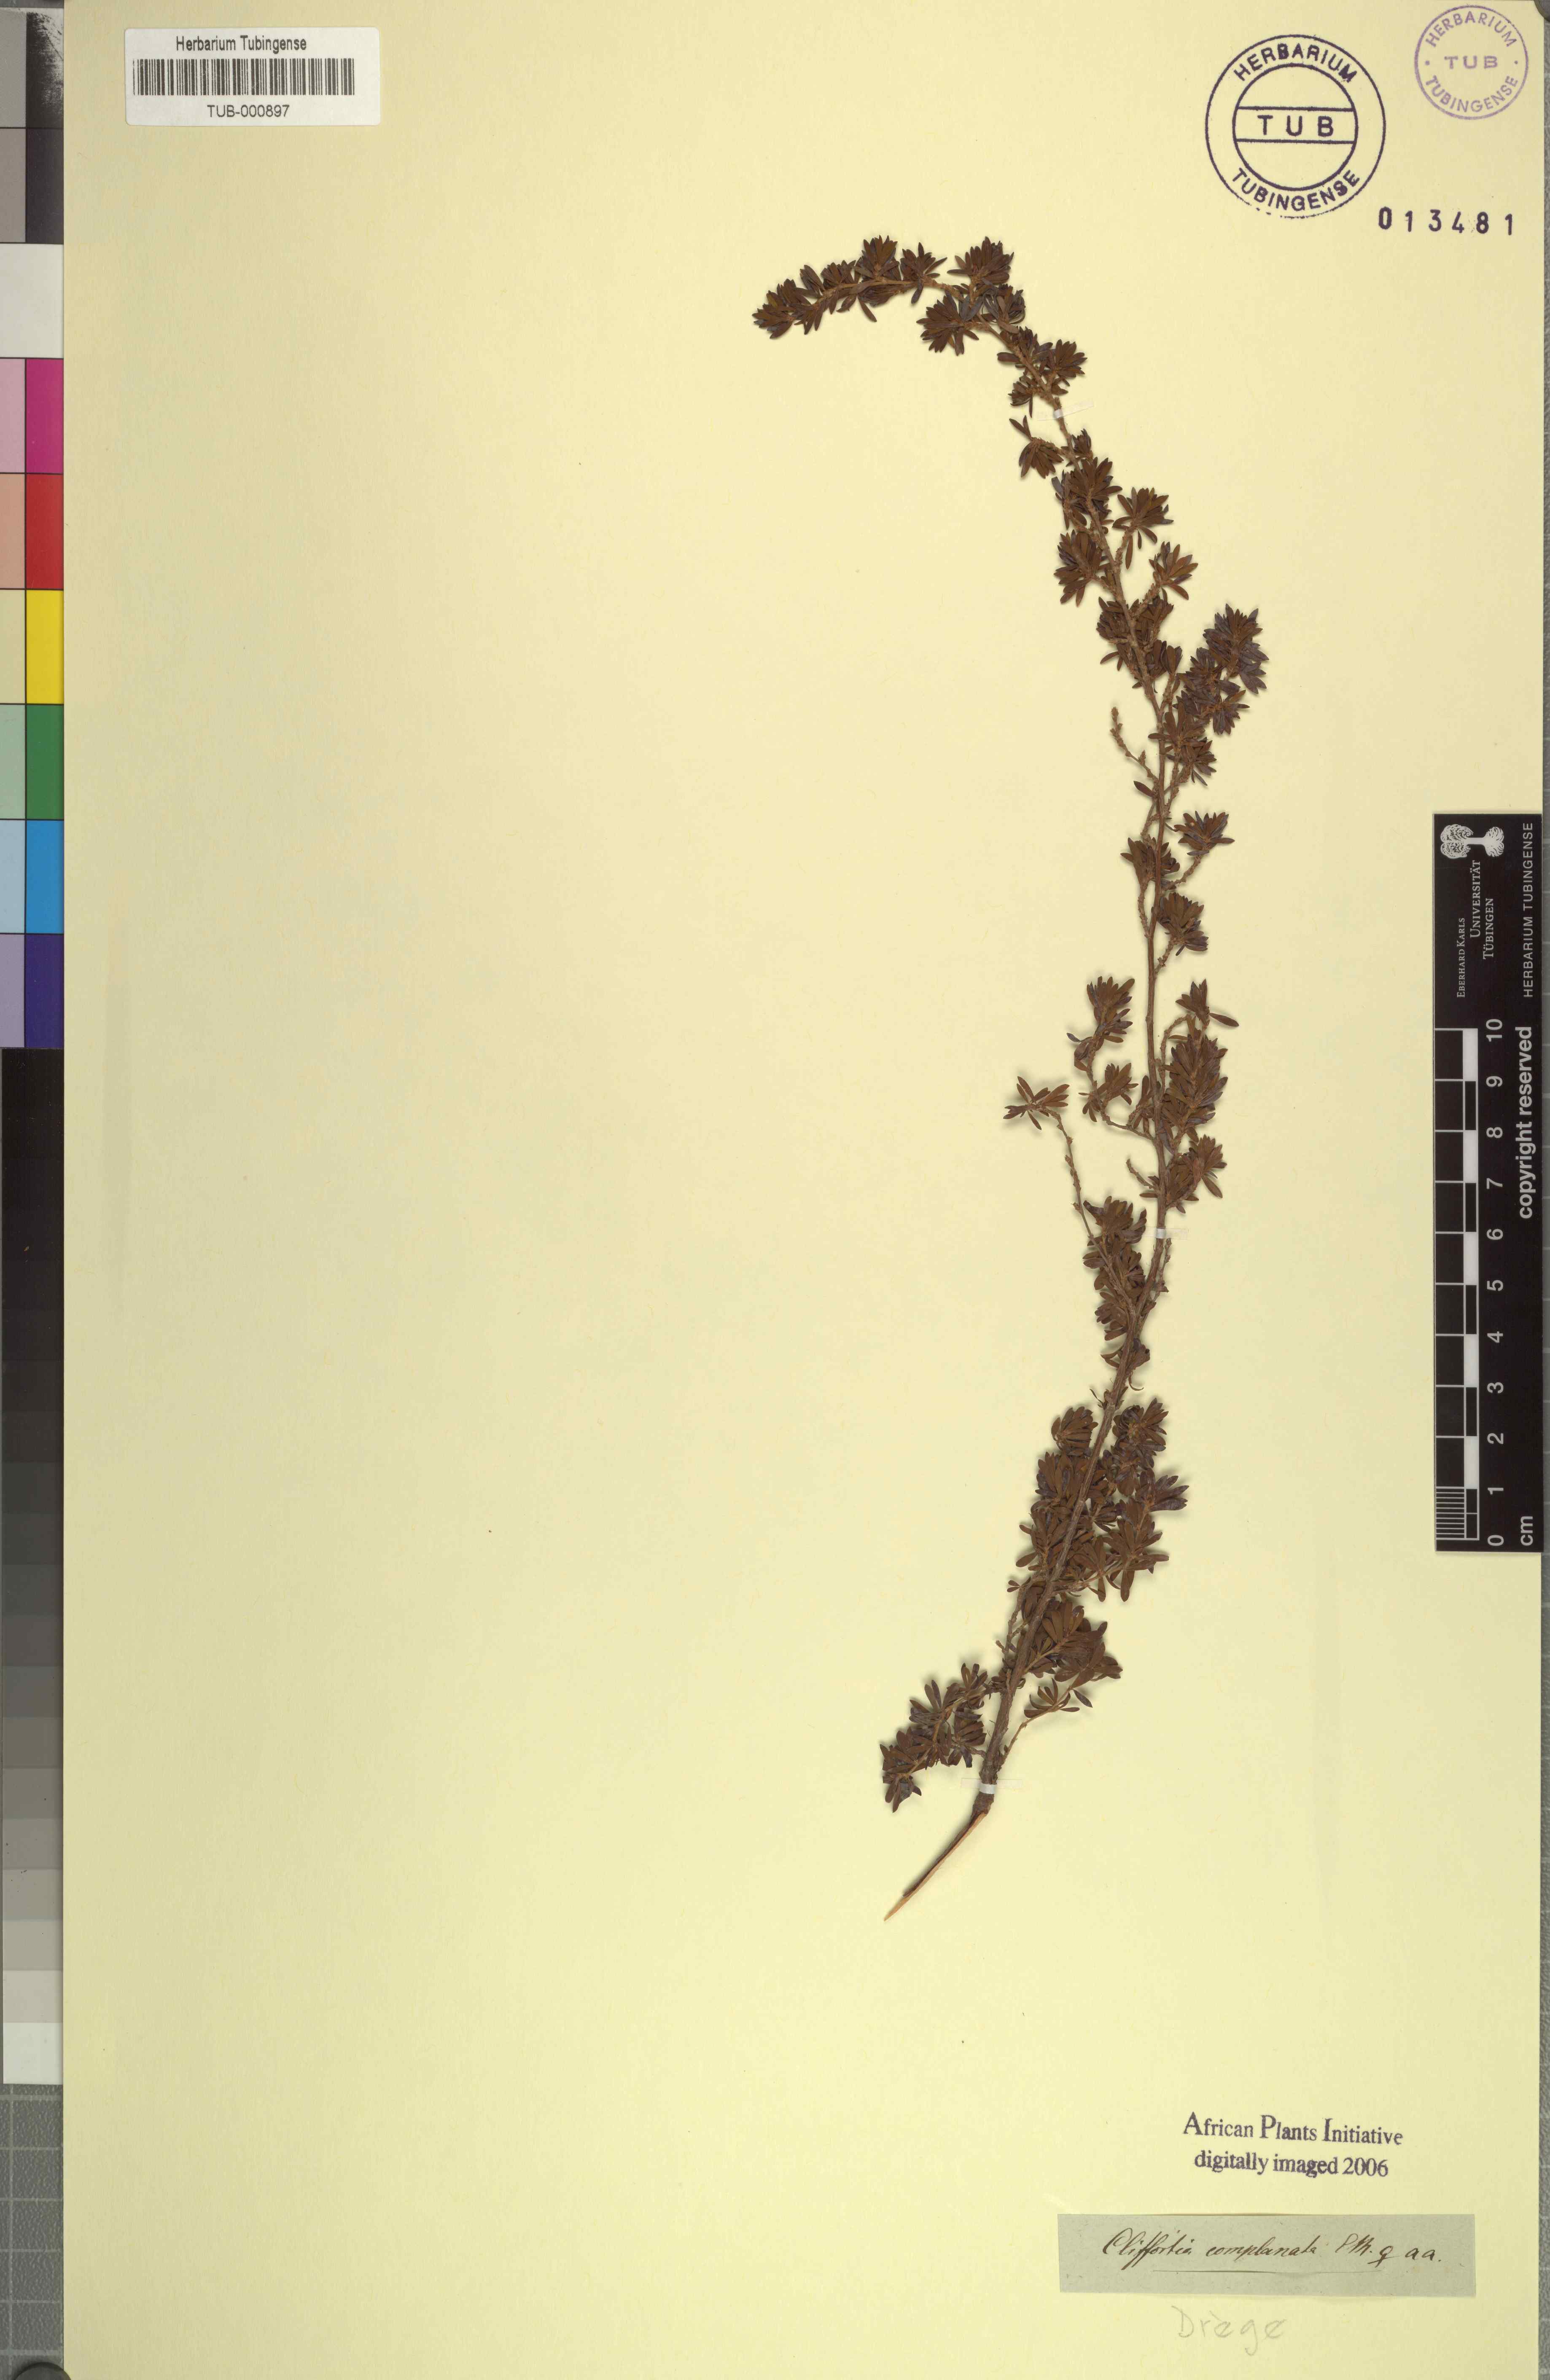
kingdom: Plantae
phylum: Tracheophyta
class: Magnoliopsida
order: Rosales
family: Rosaceae
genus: Cliffortia
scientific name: Cliffortia serpyllifolia
